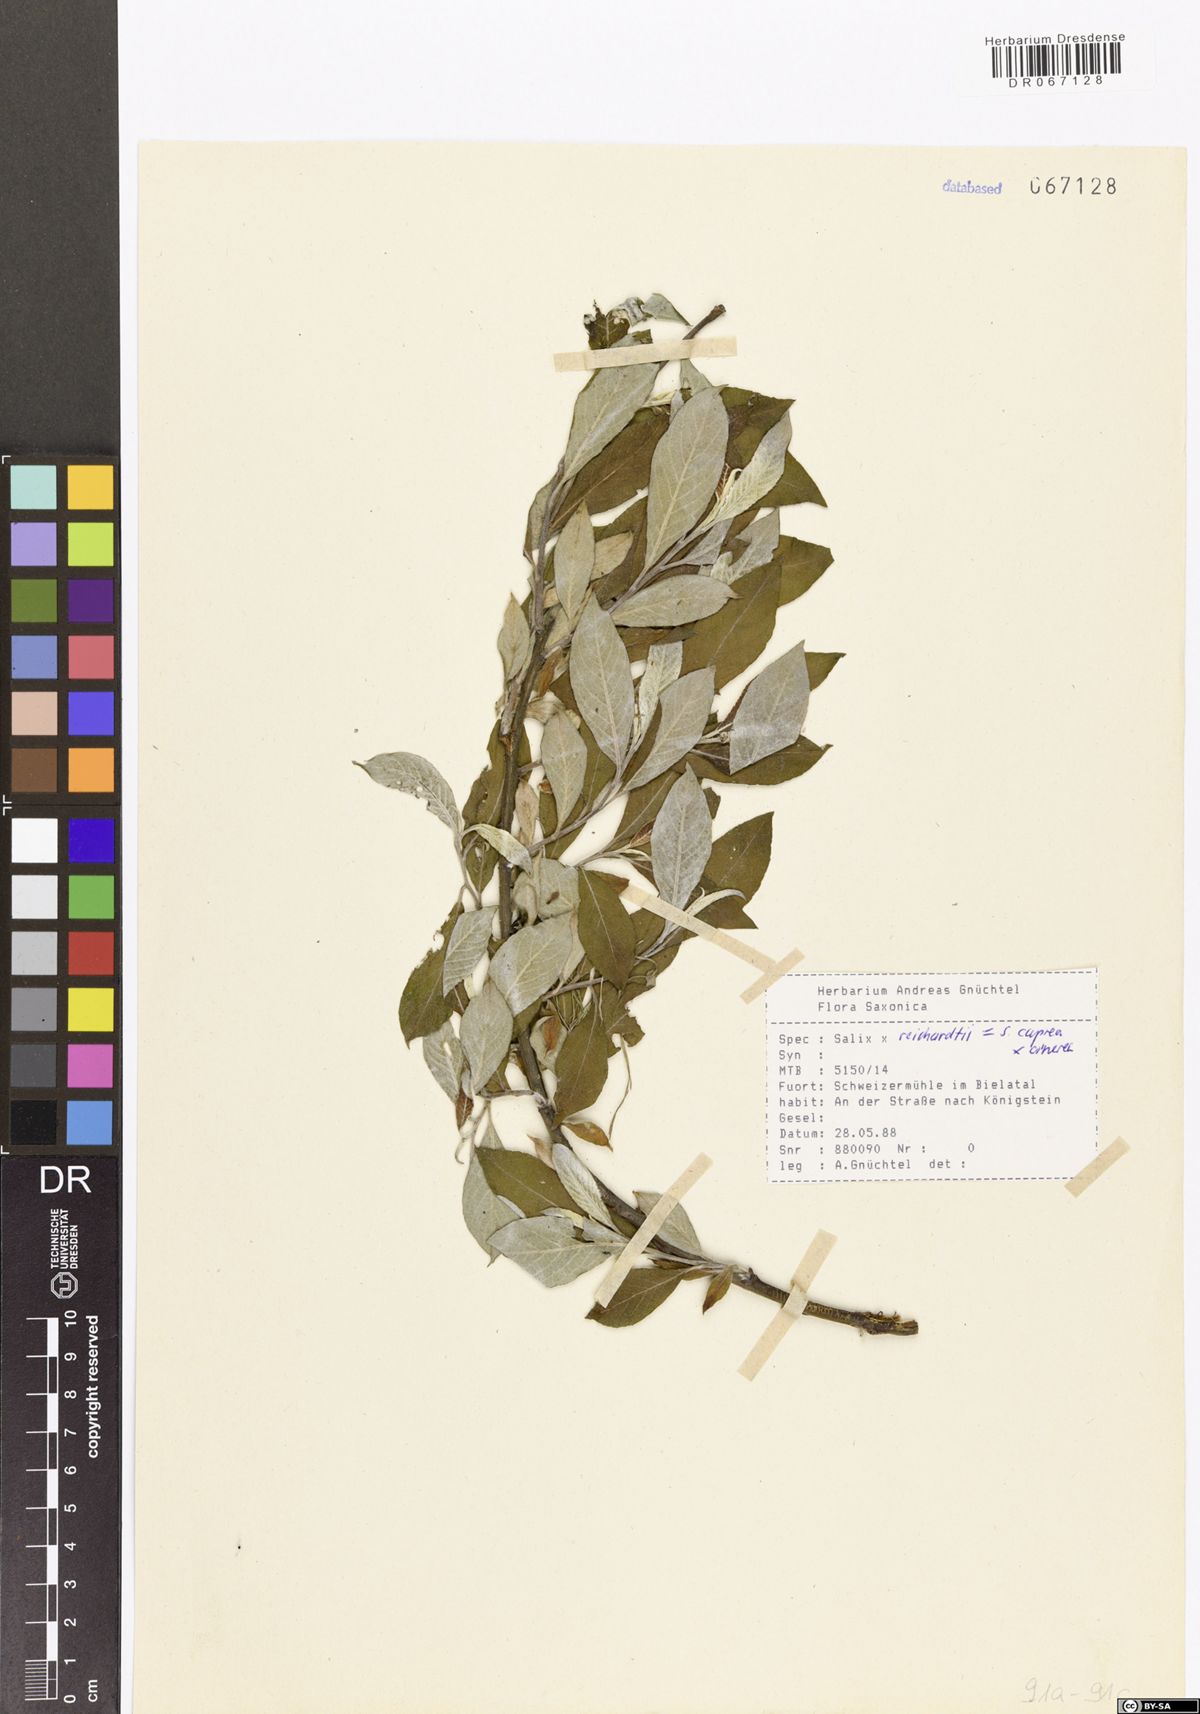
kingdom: Plantae
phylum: Tracheophyta
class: Magnoliopsida
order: Malpighiales
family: Salicaceae
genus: Salix
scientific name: Salix reichardtii
